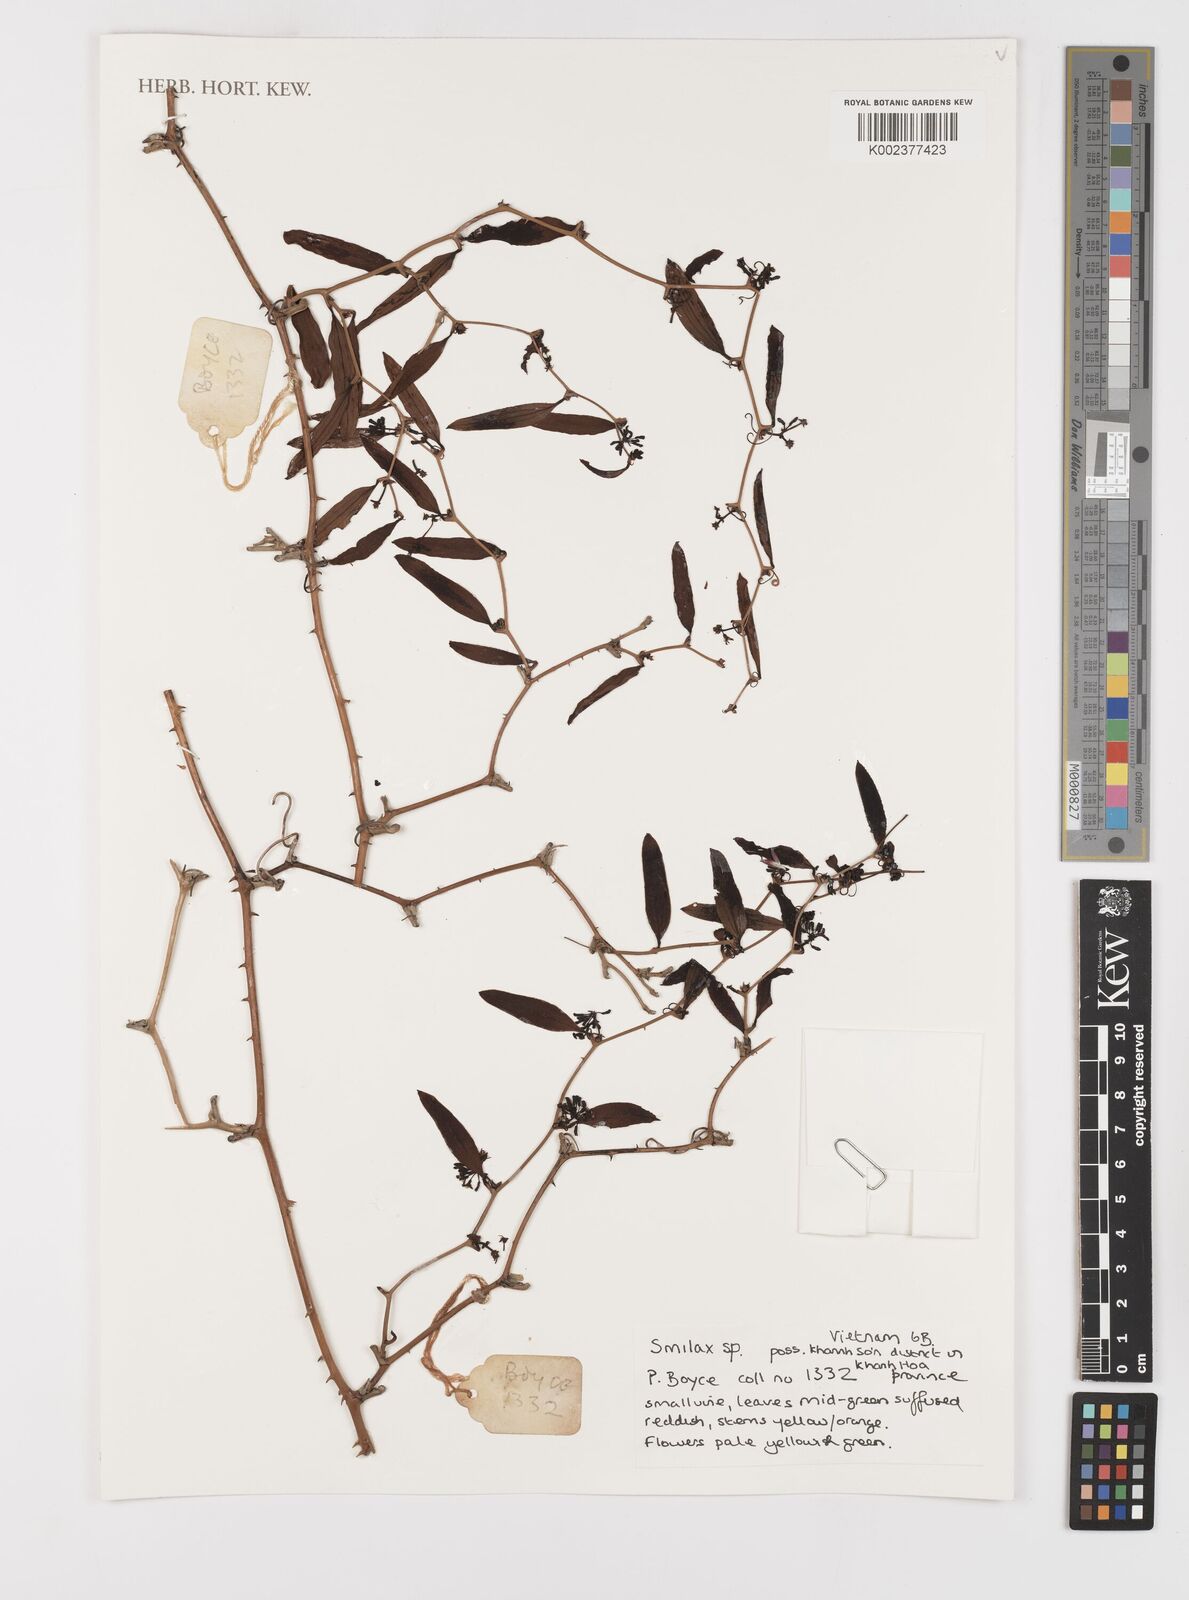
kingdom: Plantae
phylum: Tracheophyta
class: Liliopsida
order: Liliales
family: Smilacaceae
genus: Smilax
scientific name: Smilax
